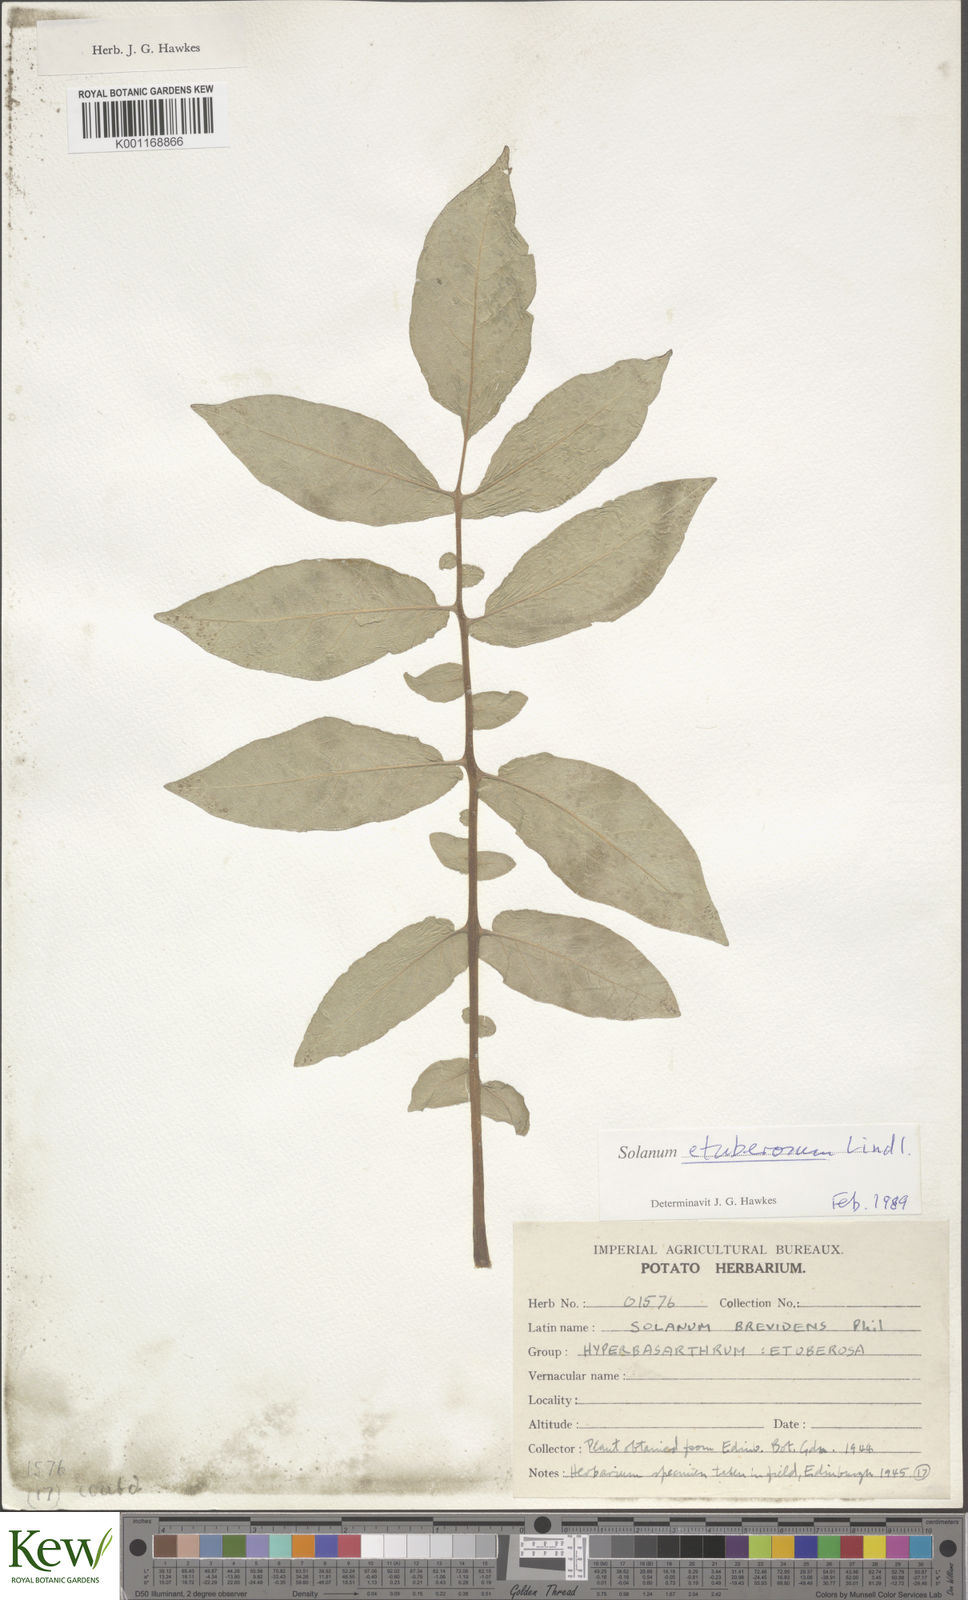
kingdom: Plantae
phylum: Tracheophyta
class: Magnoliopsida
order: Solanales
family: Solanaceae
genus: Solanum
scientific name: Solanum etuberosum
